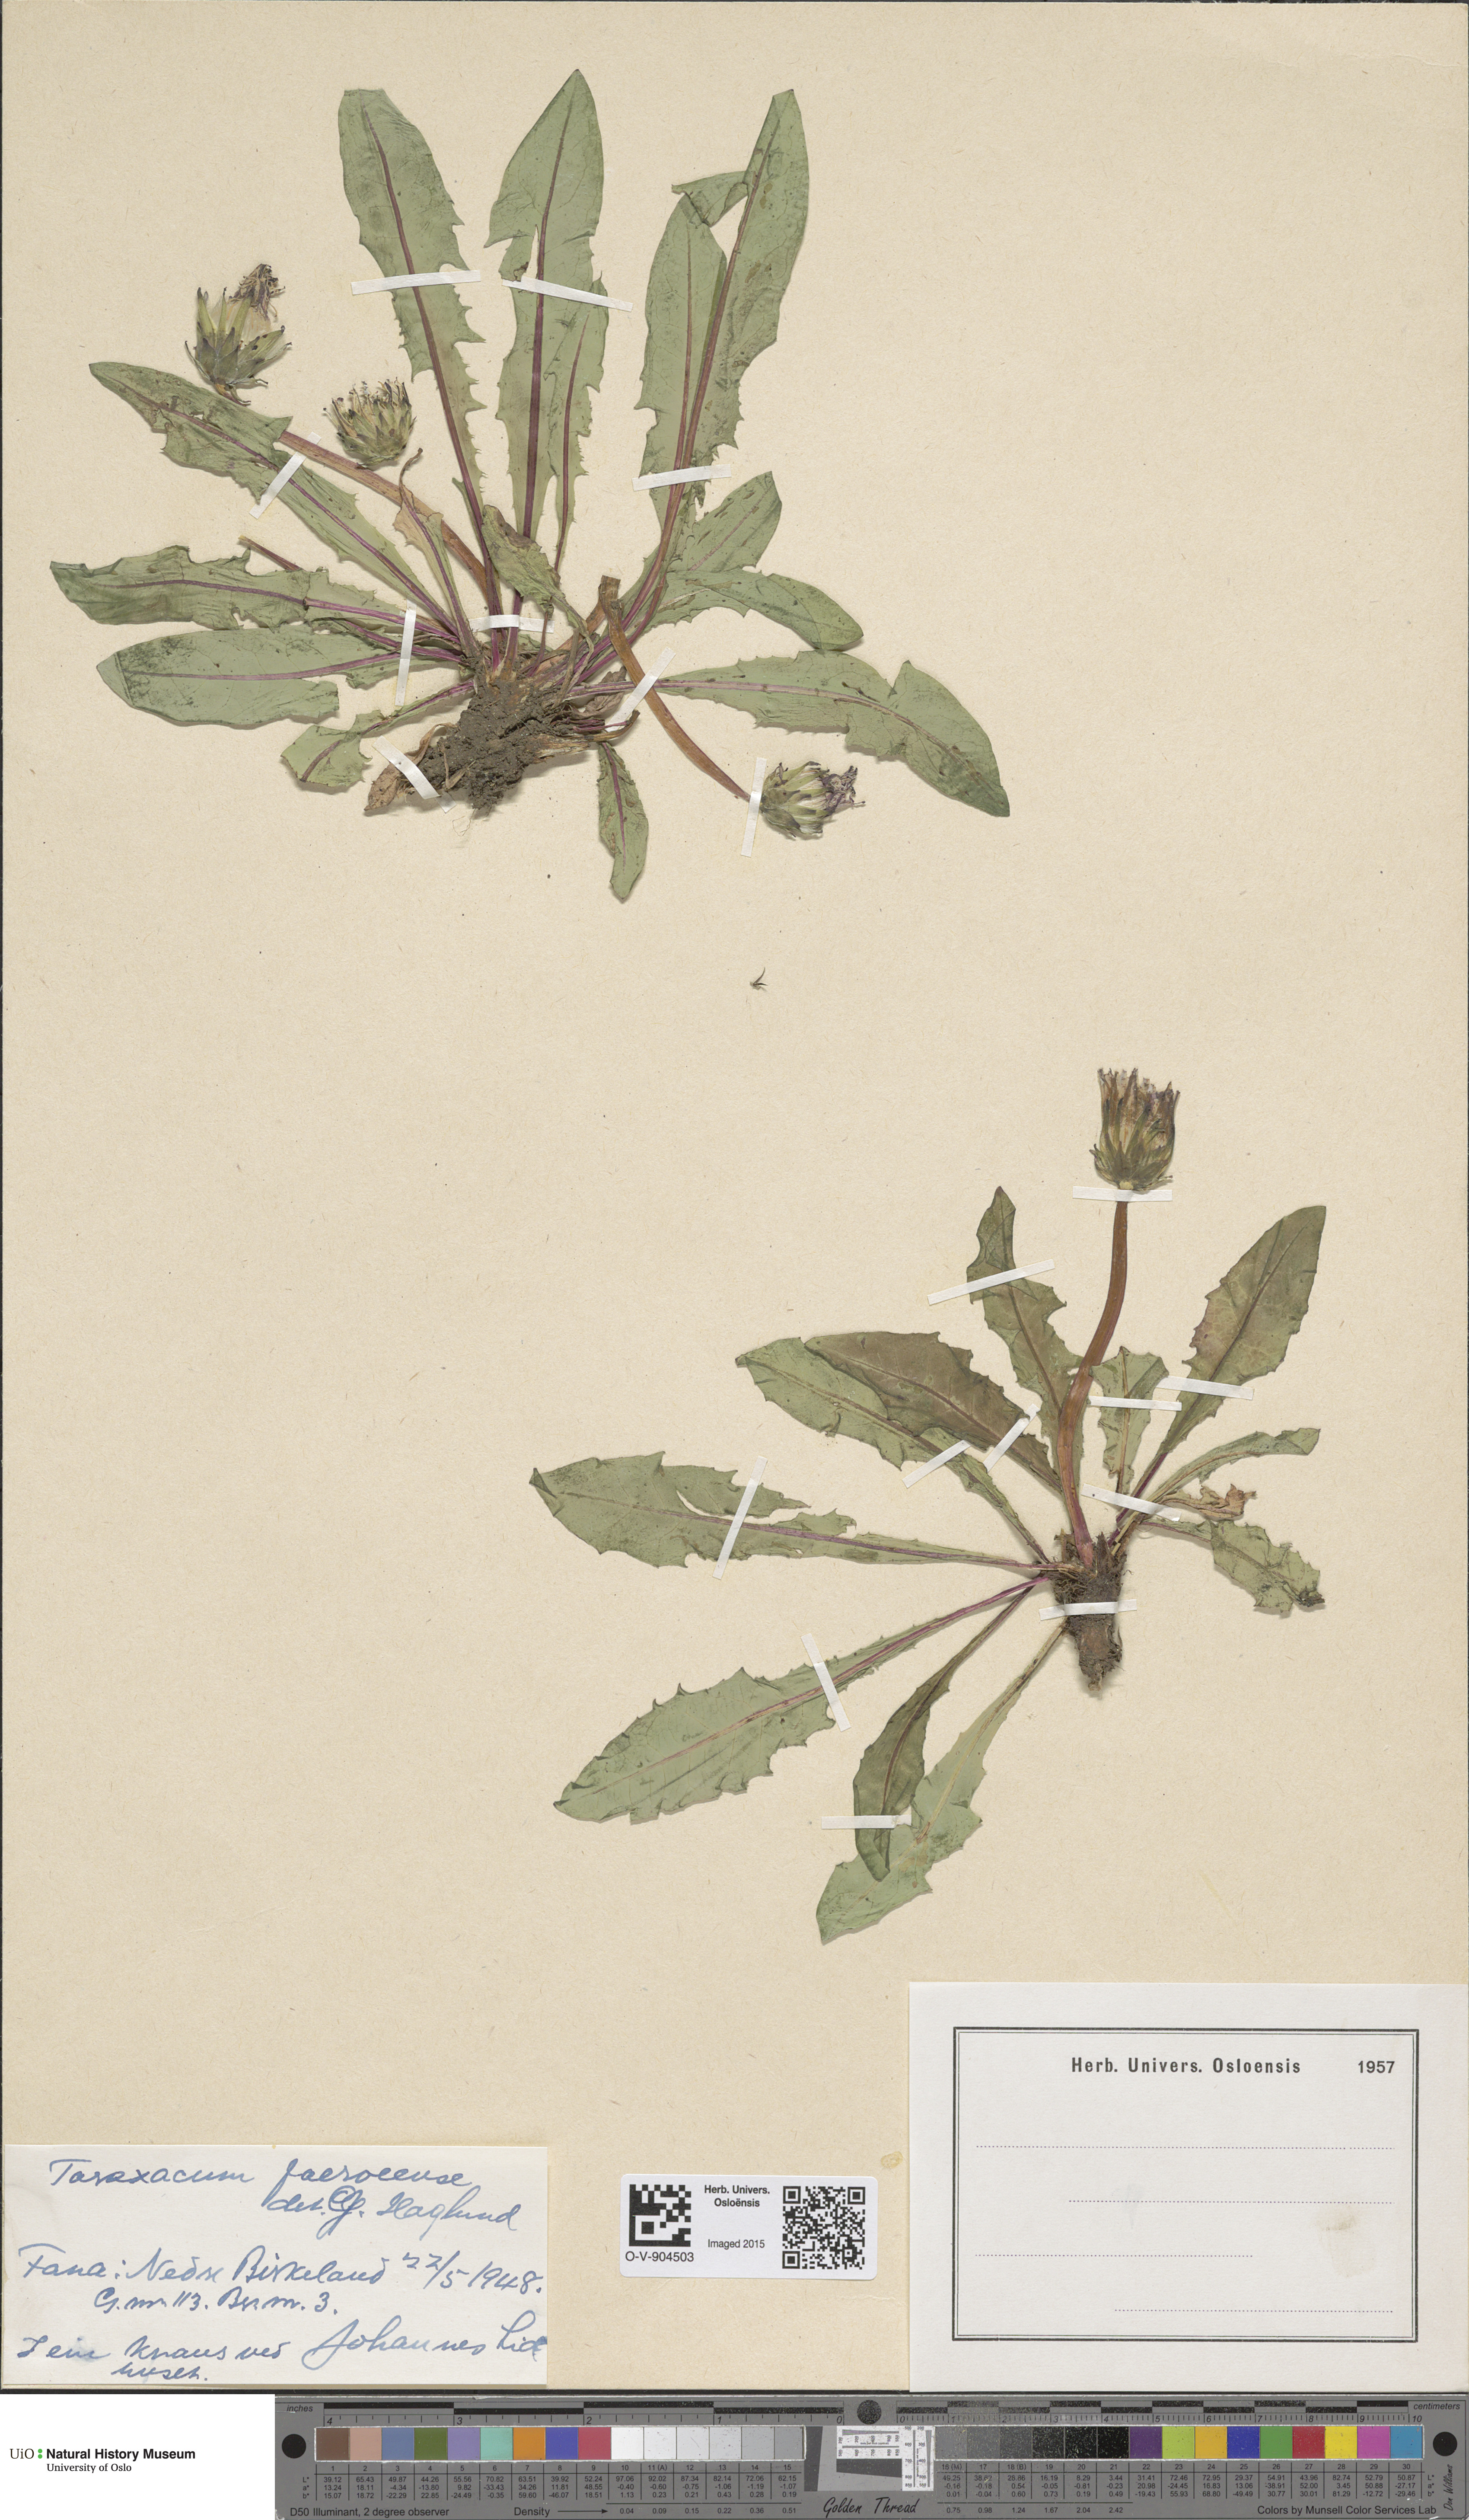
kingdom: Plantae
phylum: Tracheophyta
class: Magnoliopsida
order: Asterales
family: Asteraceae
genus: Taraxacum
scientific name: Taraxacum faeroense
